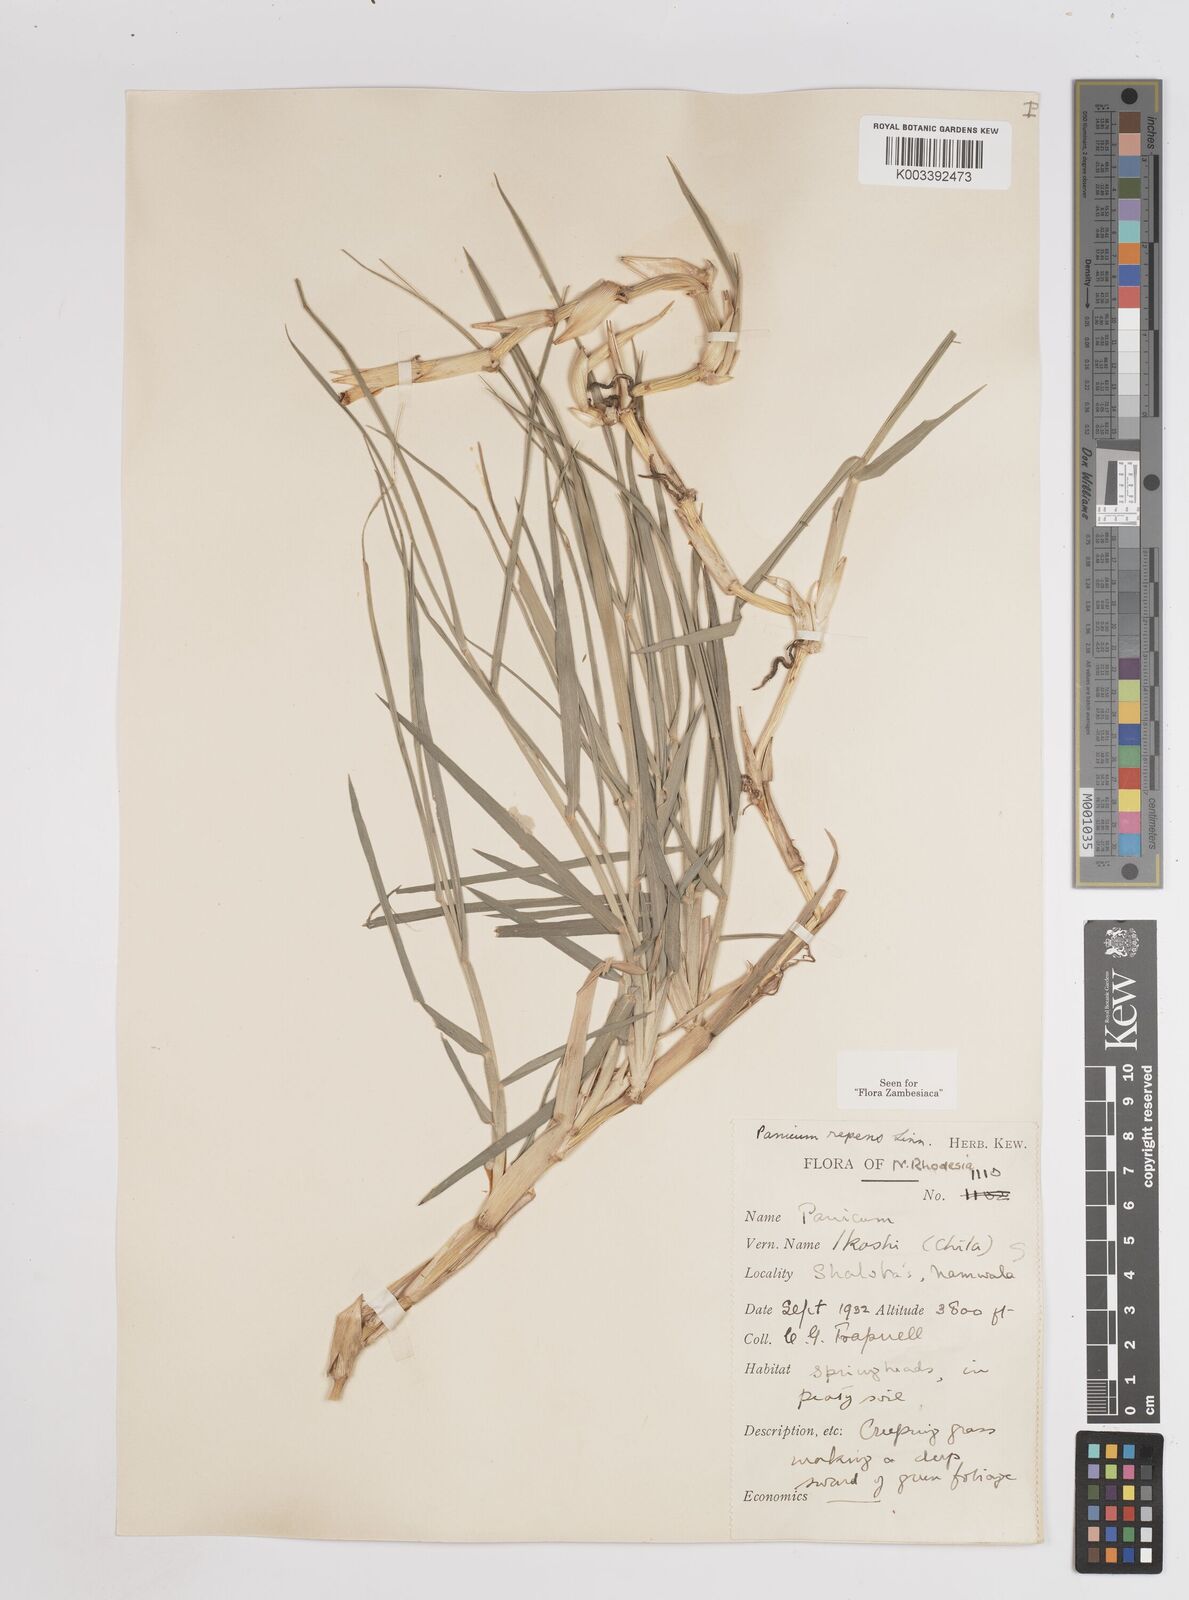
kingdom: Plantae
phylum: Tracheophyta
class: Liliopsida
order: Poales
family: Poaceae
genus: Panicum
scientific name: Panicum repens
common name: Torpedo grass
